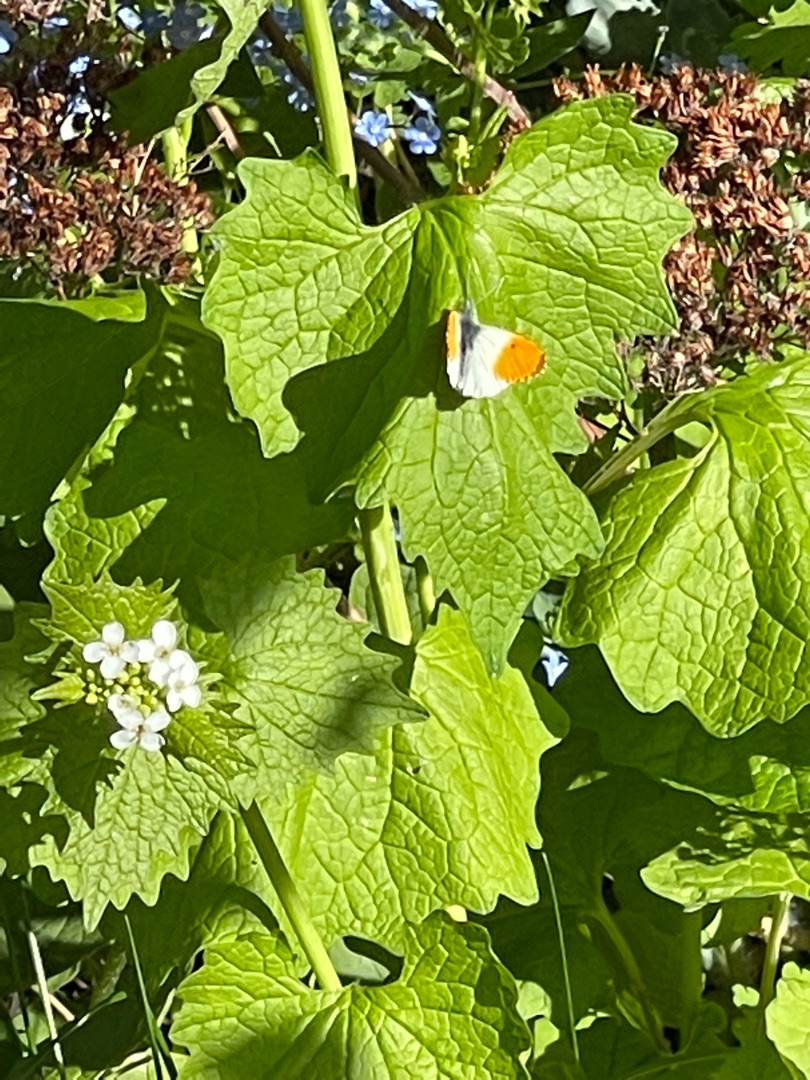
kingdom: Animalia
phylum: Arthropoda
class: Insecta
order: Lepidoptera
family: Pieridae
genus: Anthocharis
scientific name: Anthocharis cardamines
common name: Aurora
